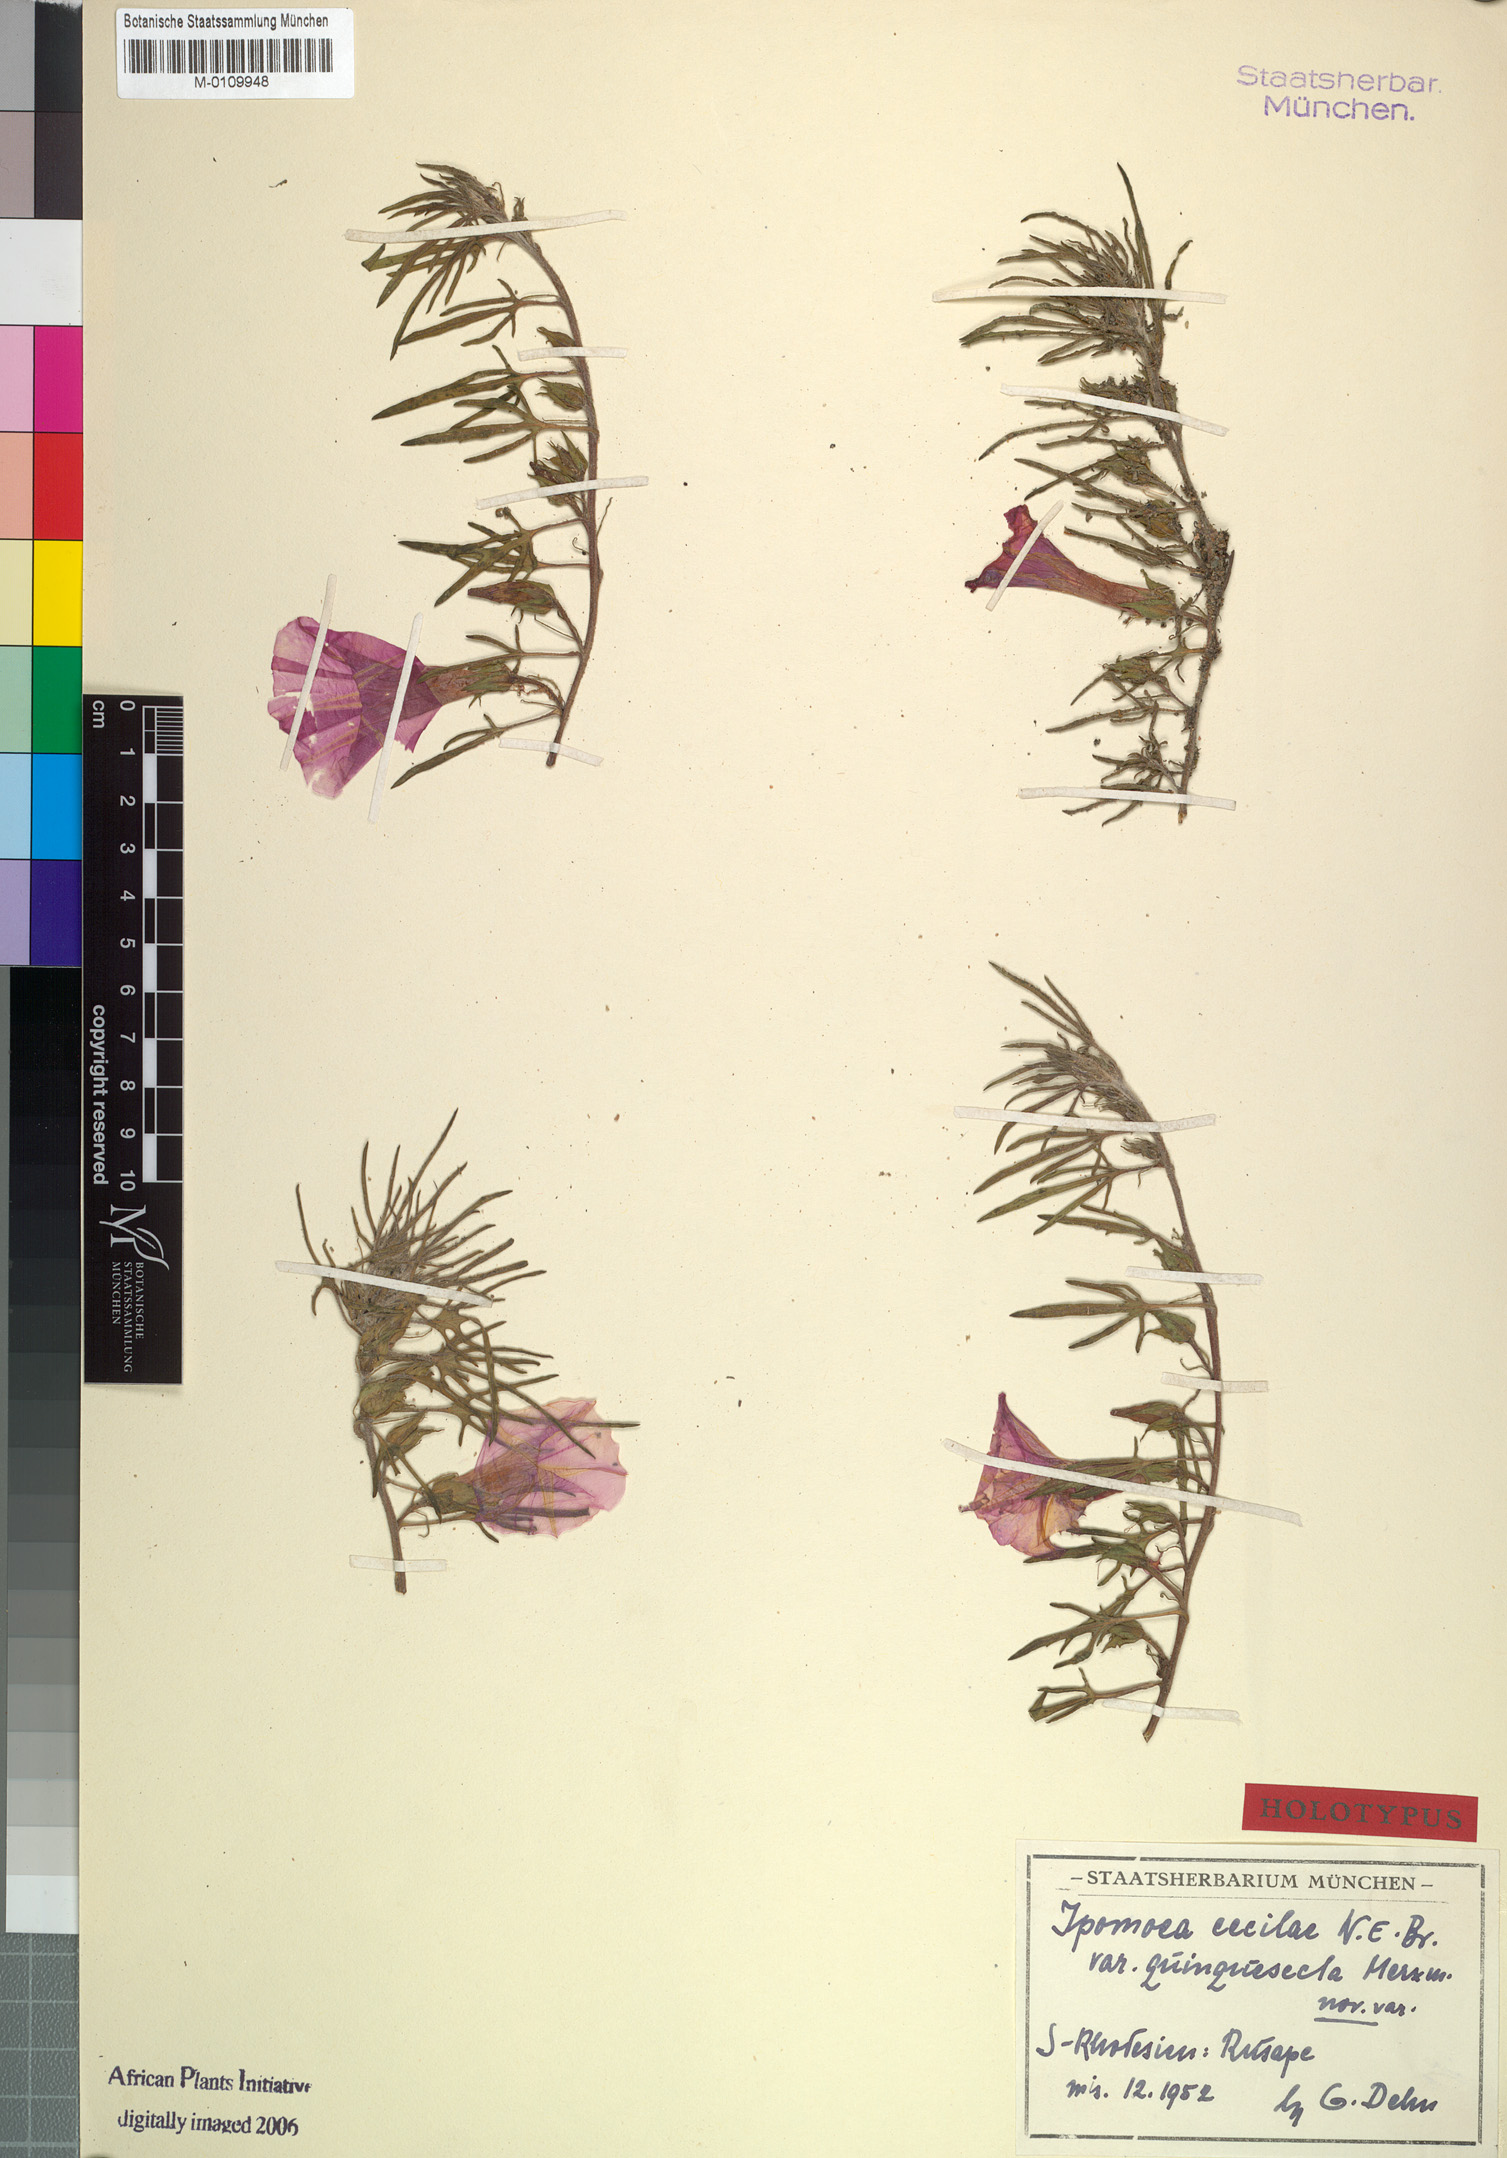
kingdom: Plantae
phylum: Tracheophyta
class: Magnoliopsida
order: Solanales
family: Convolvulaceae
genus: Ipomoea
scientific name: Ipomoea oenotherae
